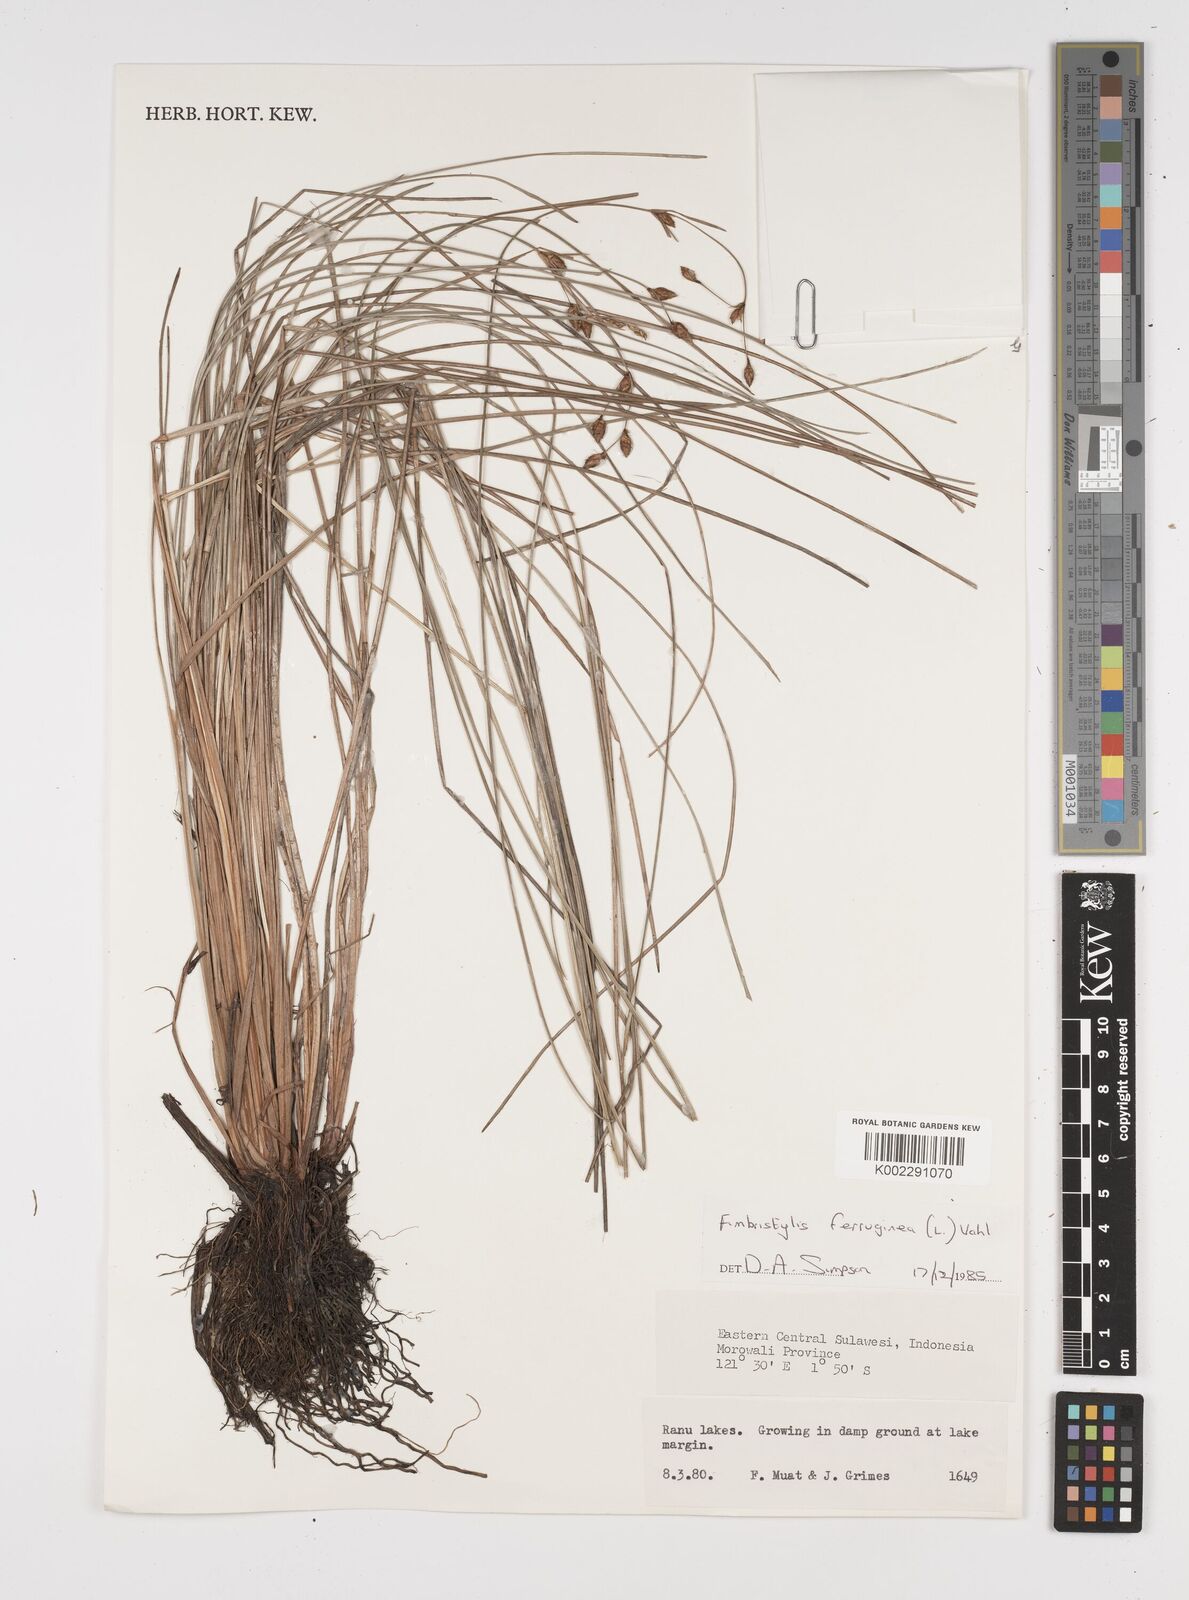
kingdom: Plantae
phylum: Tracheophyta
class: Liliopsida
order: Poales
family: Cyperaceae
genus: Fimbristylis
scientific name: Fimbristylis ferruginea
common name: West indian fimbry
